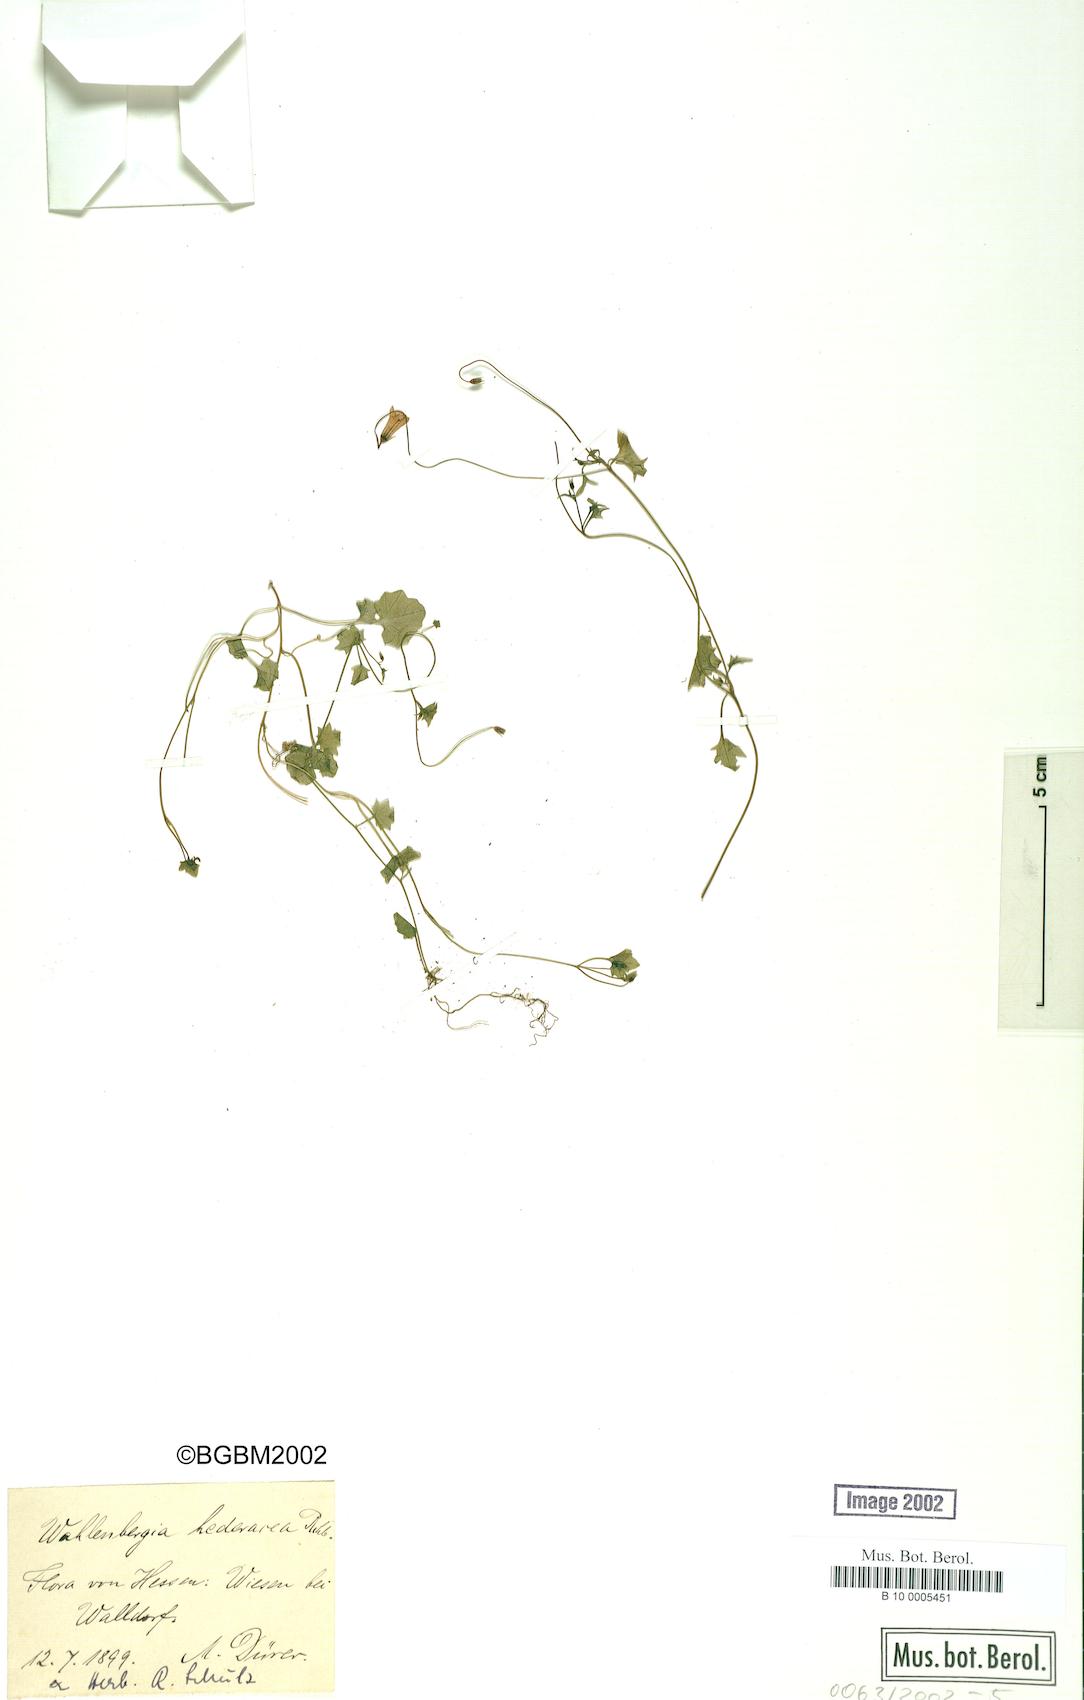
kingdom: Plantae
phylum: Tracheophyta
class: Magnoliopsida
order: Asterales
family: Campanulaceae
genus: Hesperocodon
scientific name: Hesperocodon hederaceus
